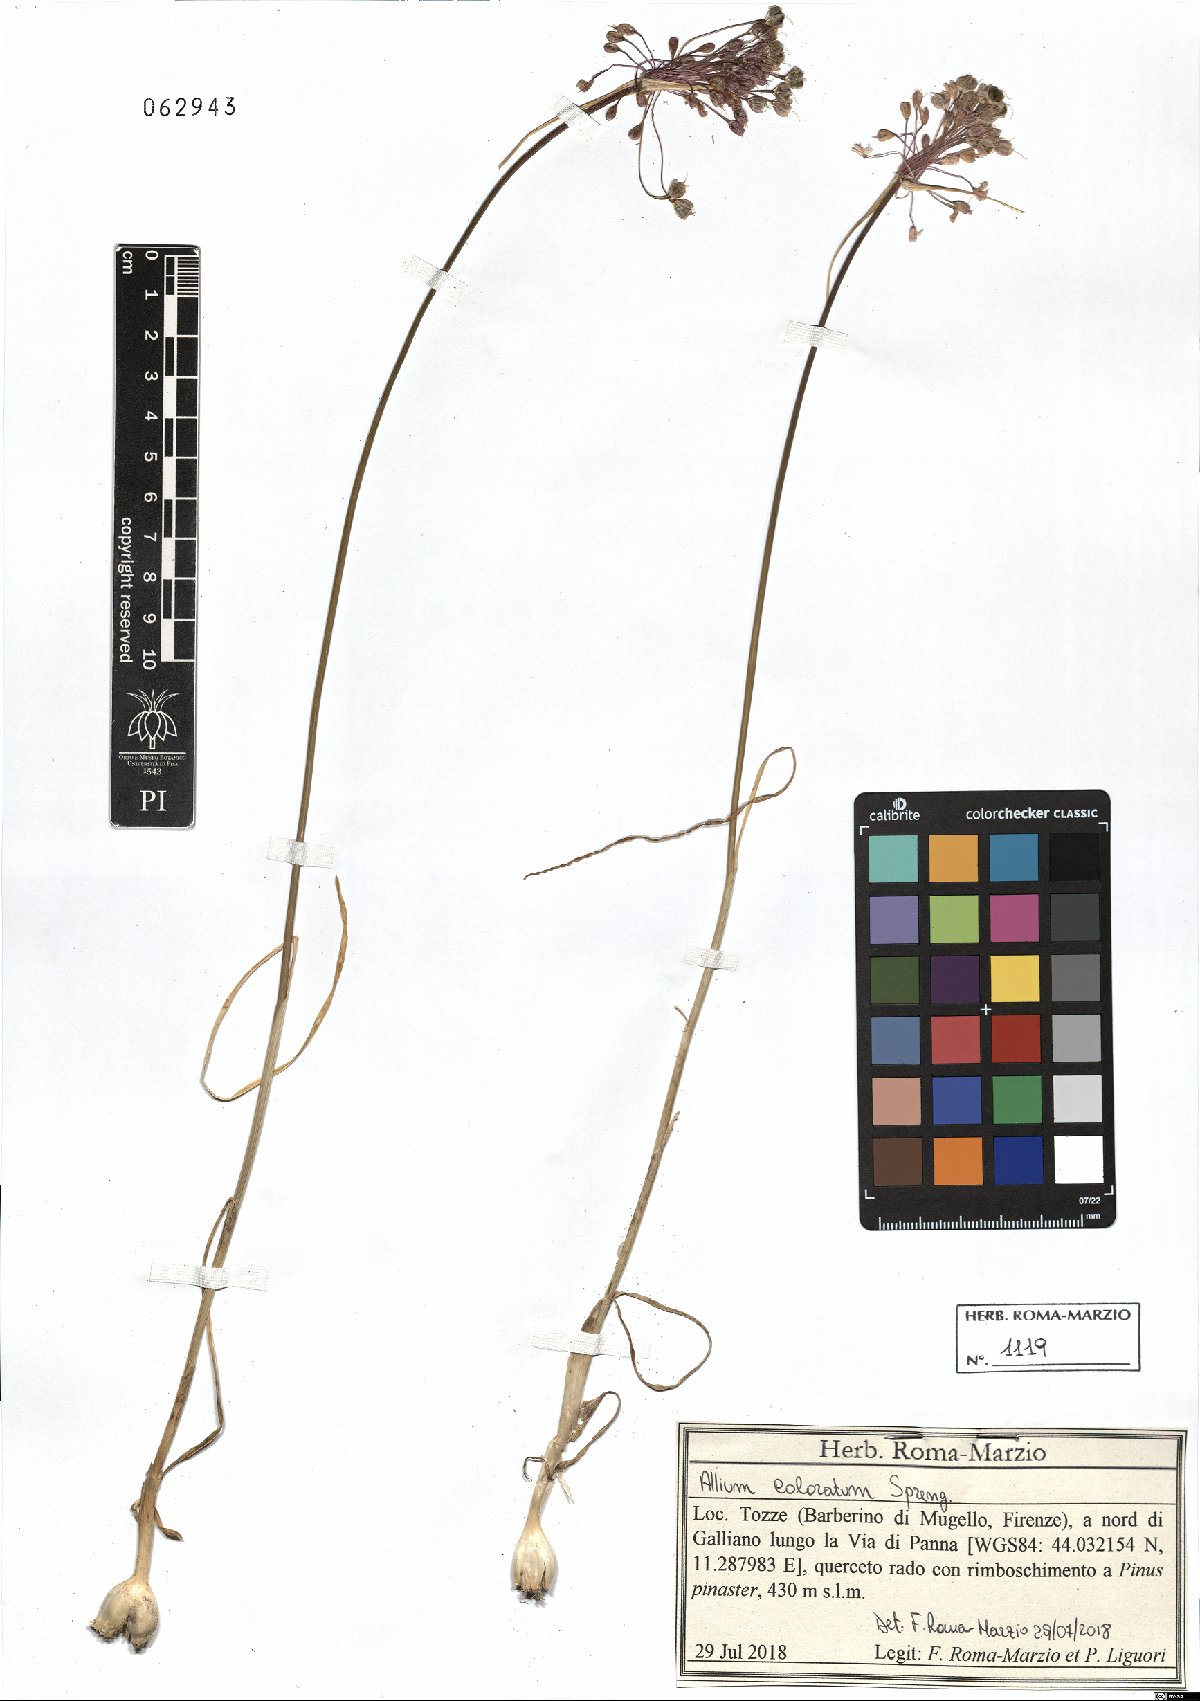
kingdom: Plantae
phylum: Tracheophyta
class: Liliopsida
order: Asparagales
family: Amaryllidaceae
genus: Allium
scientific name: Allium coloratum
